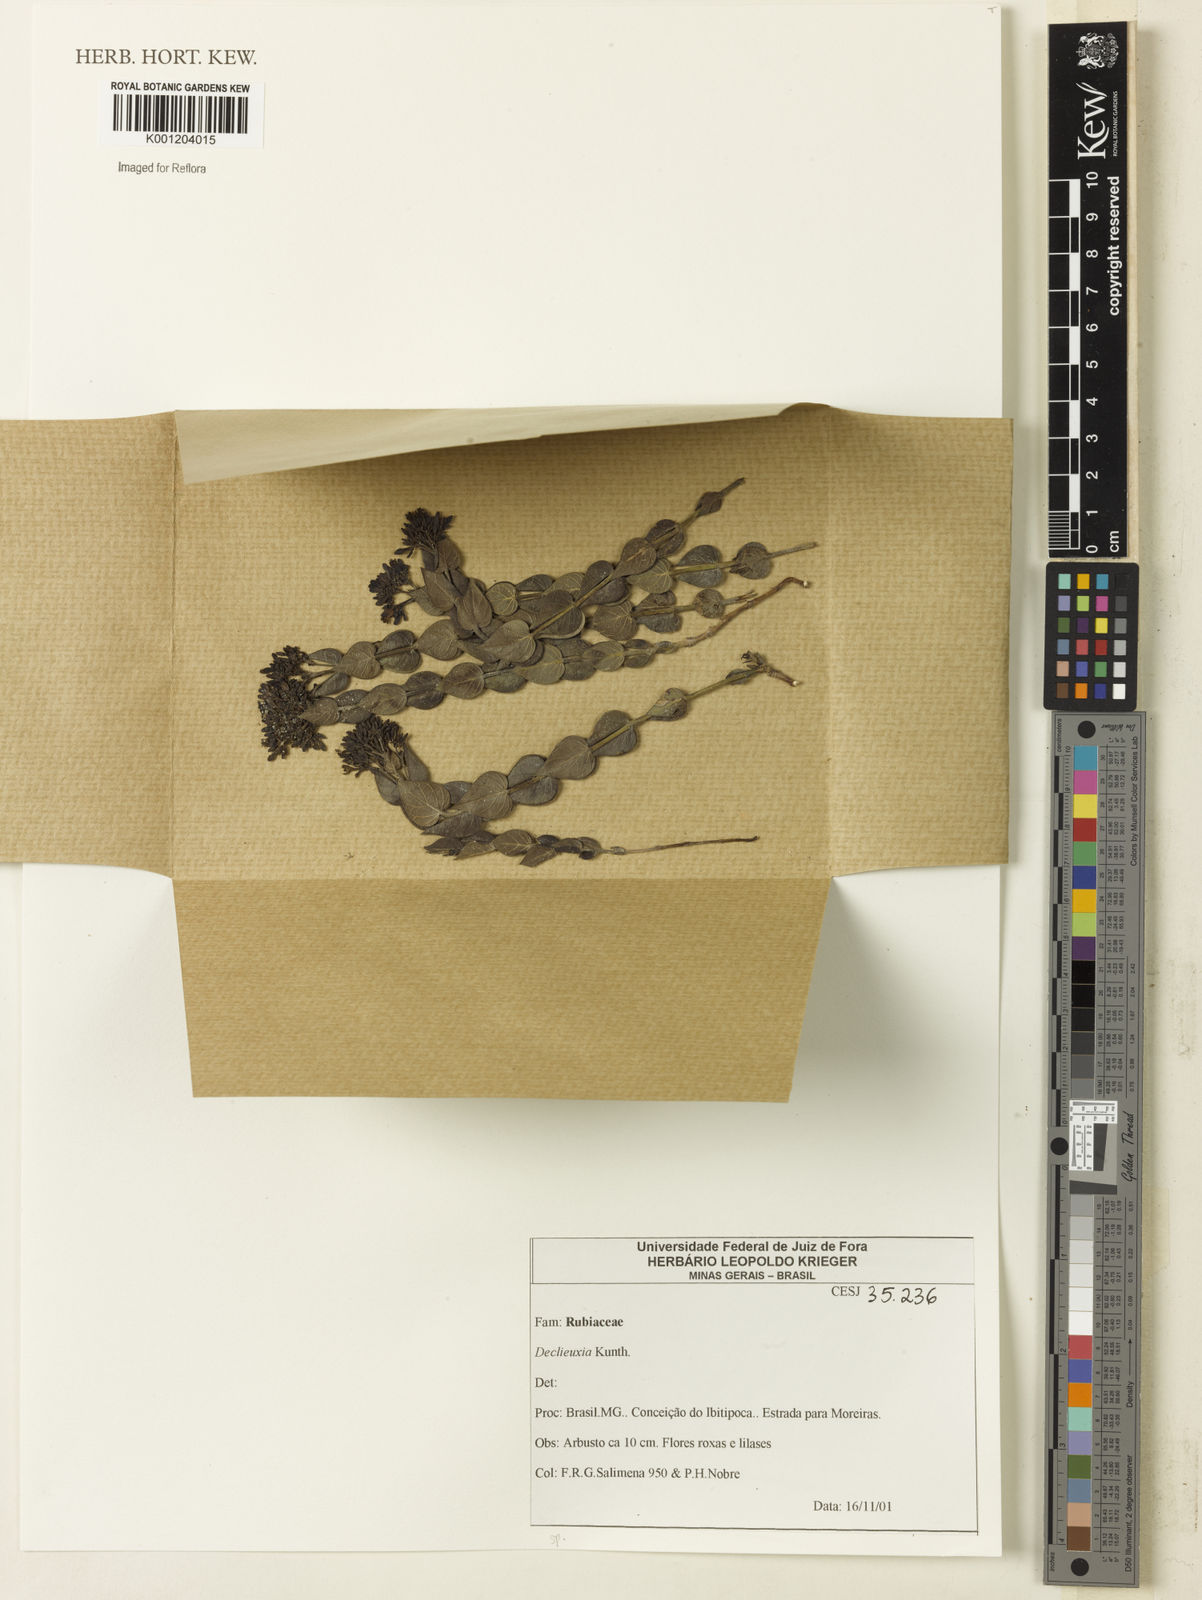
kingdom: Plantae
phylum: Tracheophyta
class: Magnoliopsida
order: Gentianales
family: Rubiaceae
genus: Declieuxia
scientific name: Declieuxia
